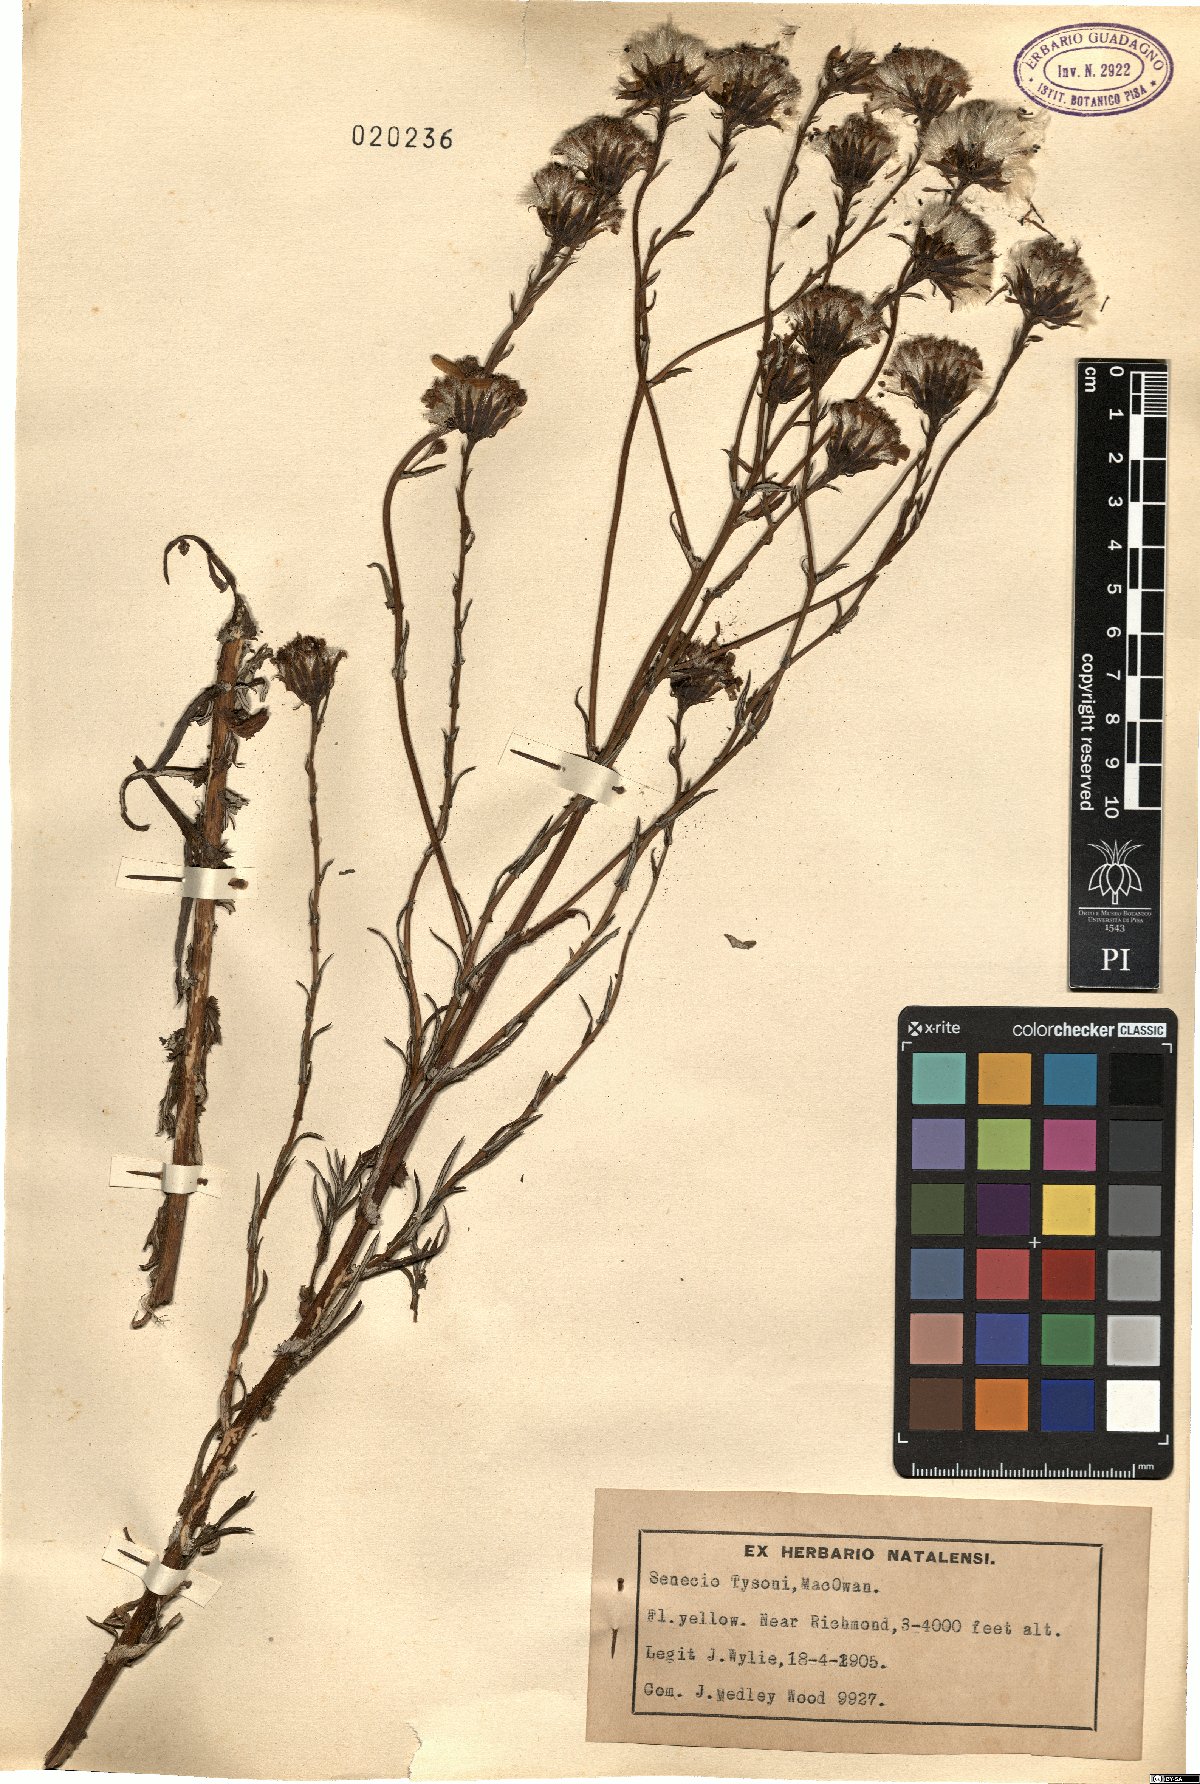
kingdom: Plantae
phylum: Tracheophyta
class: Magnoliopsida
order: Asterales
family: Asteraceae
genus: Senecio
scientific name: Senecio tysonii
